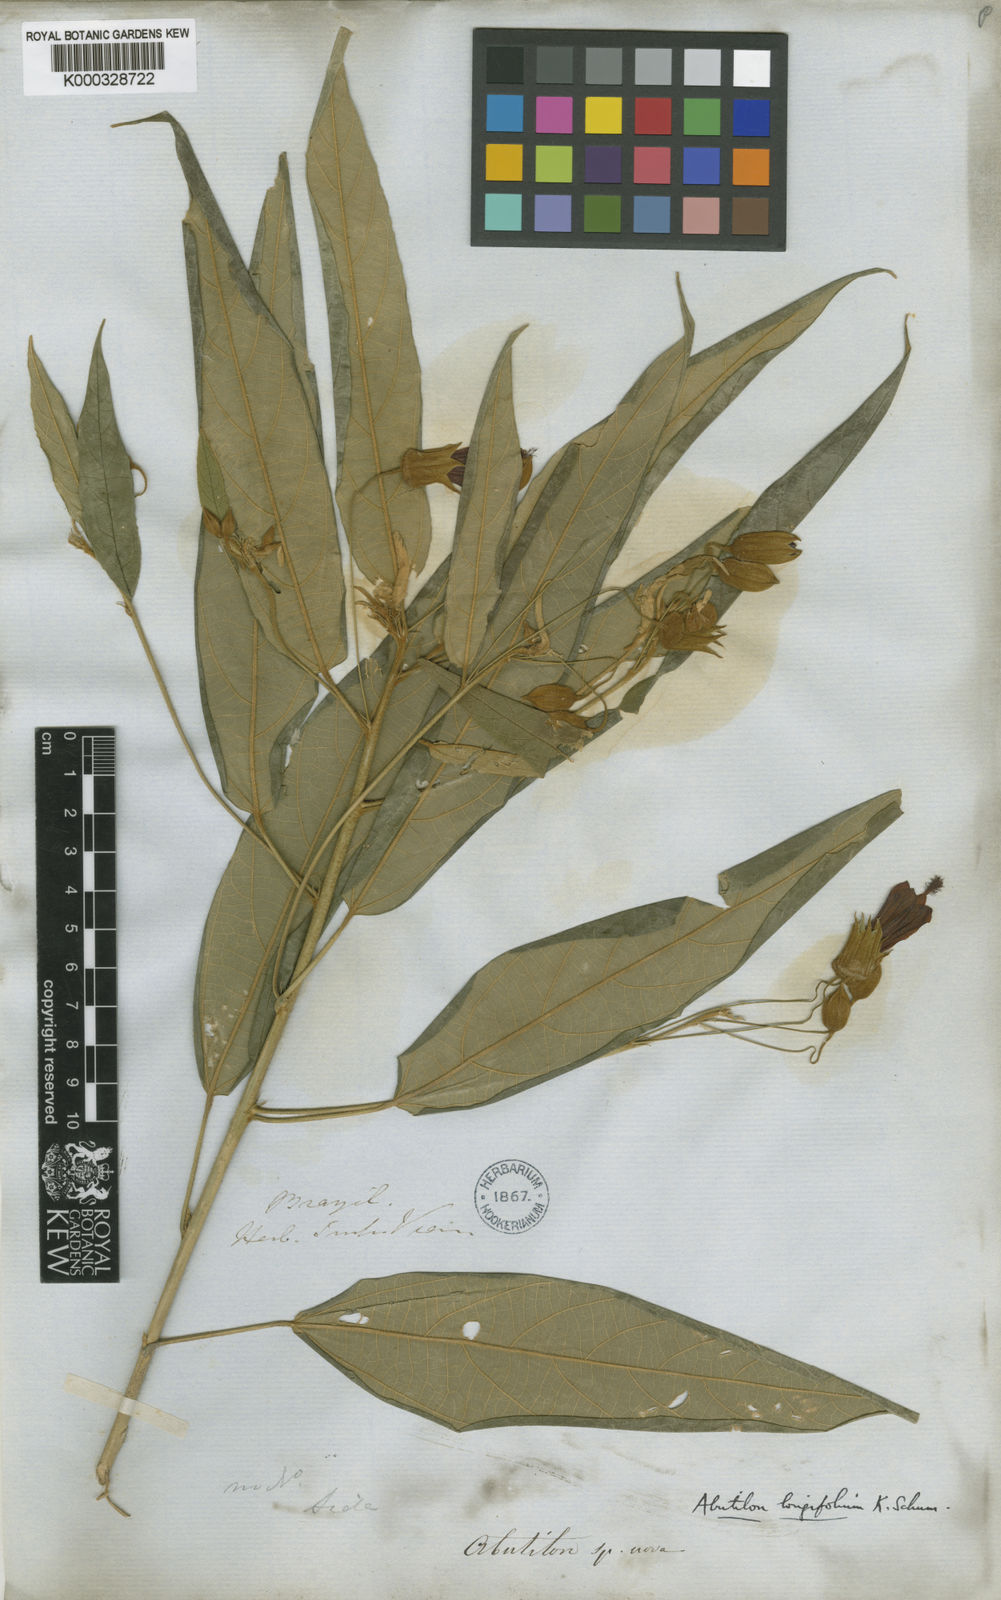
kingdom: Plantae
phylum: Tracheophyta
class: Magnoliopsida
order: Malvales
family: Malvaceae
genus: Callianthe
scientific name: Callianthe longifolia
